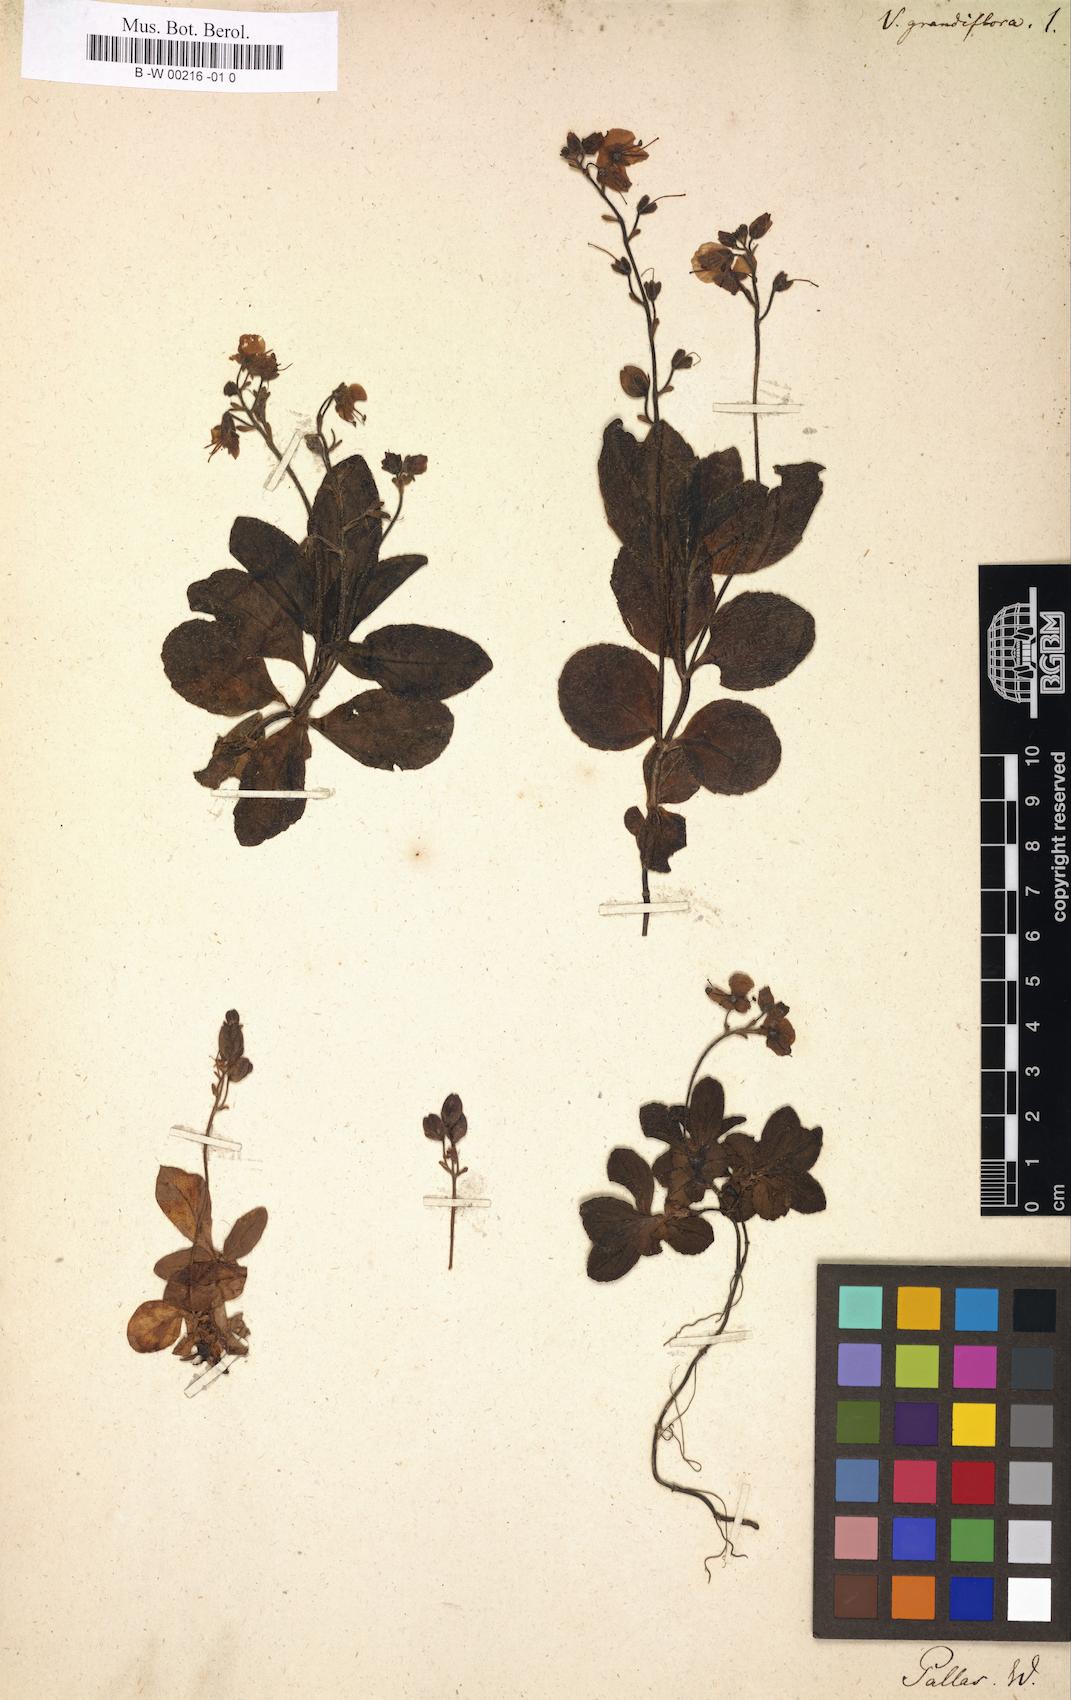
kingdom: Plantae
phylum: Tracheophyta
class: Magnoliopsida
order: Lamiales
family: Plantaginaceae
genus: Veronica
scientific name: Veronica grandiflora
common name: Large-flower speedwell
